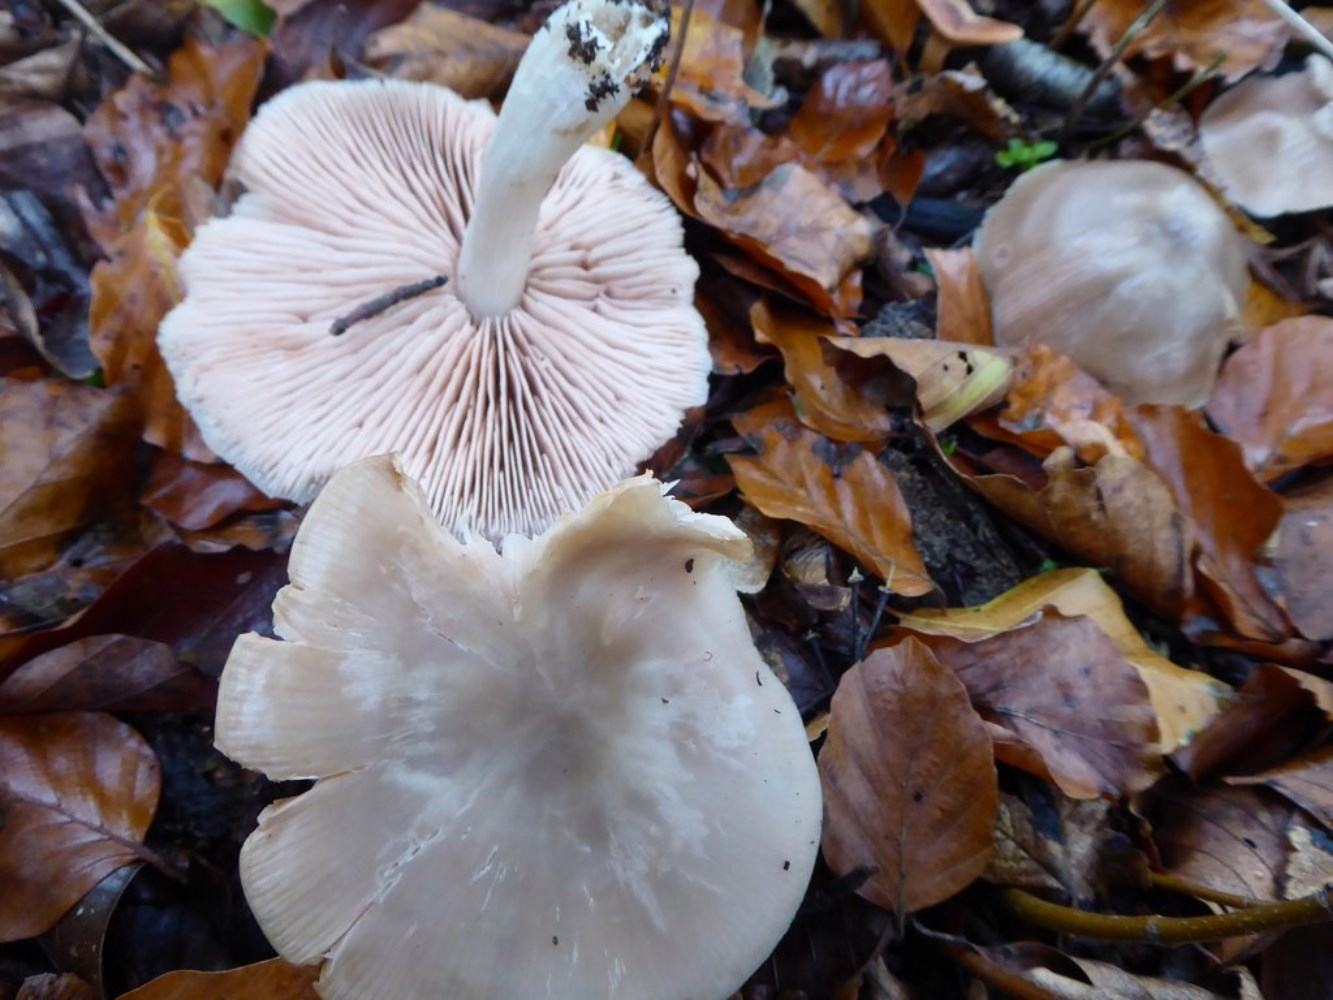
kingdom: Fungi
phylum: Basidiomycota
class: Agaricomycetes
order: Agaricales
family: Entolomataceae
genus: Entoloma
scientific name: Entoloma rhodopolium
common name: skov-rødblad
